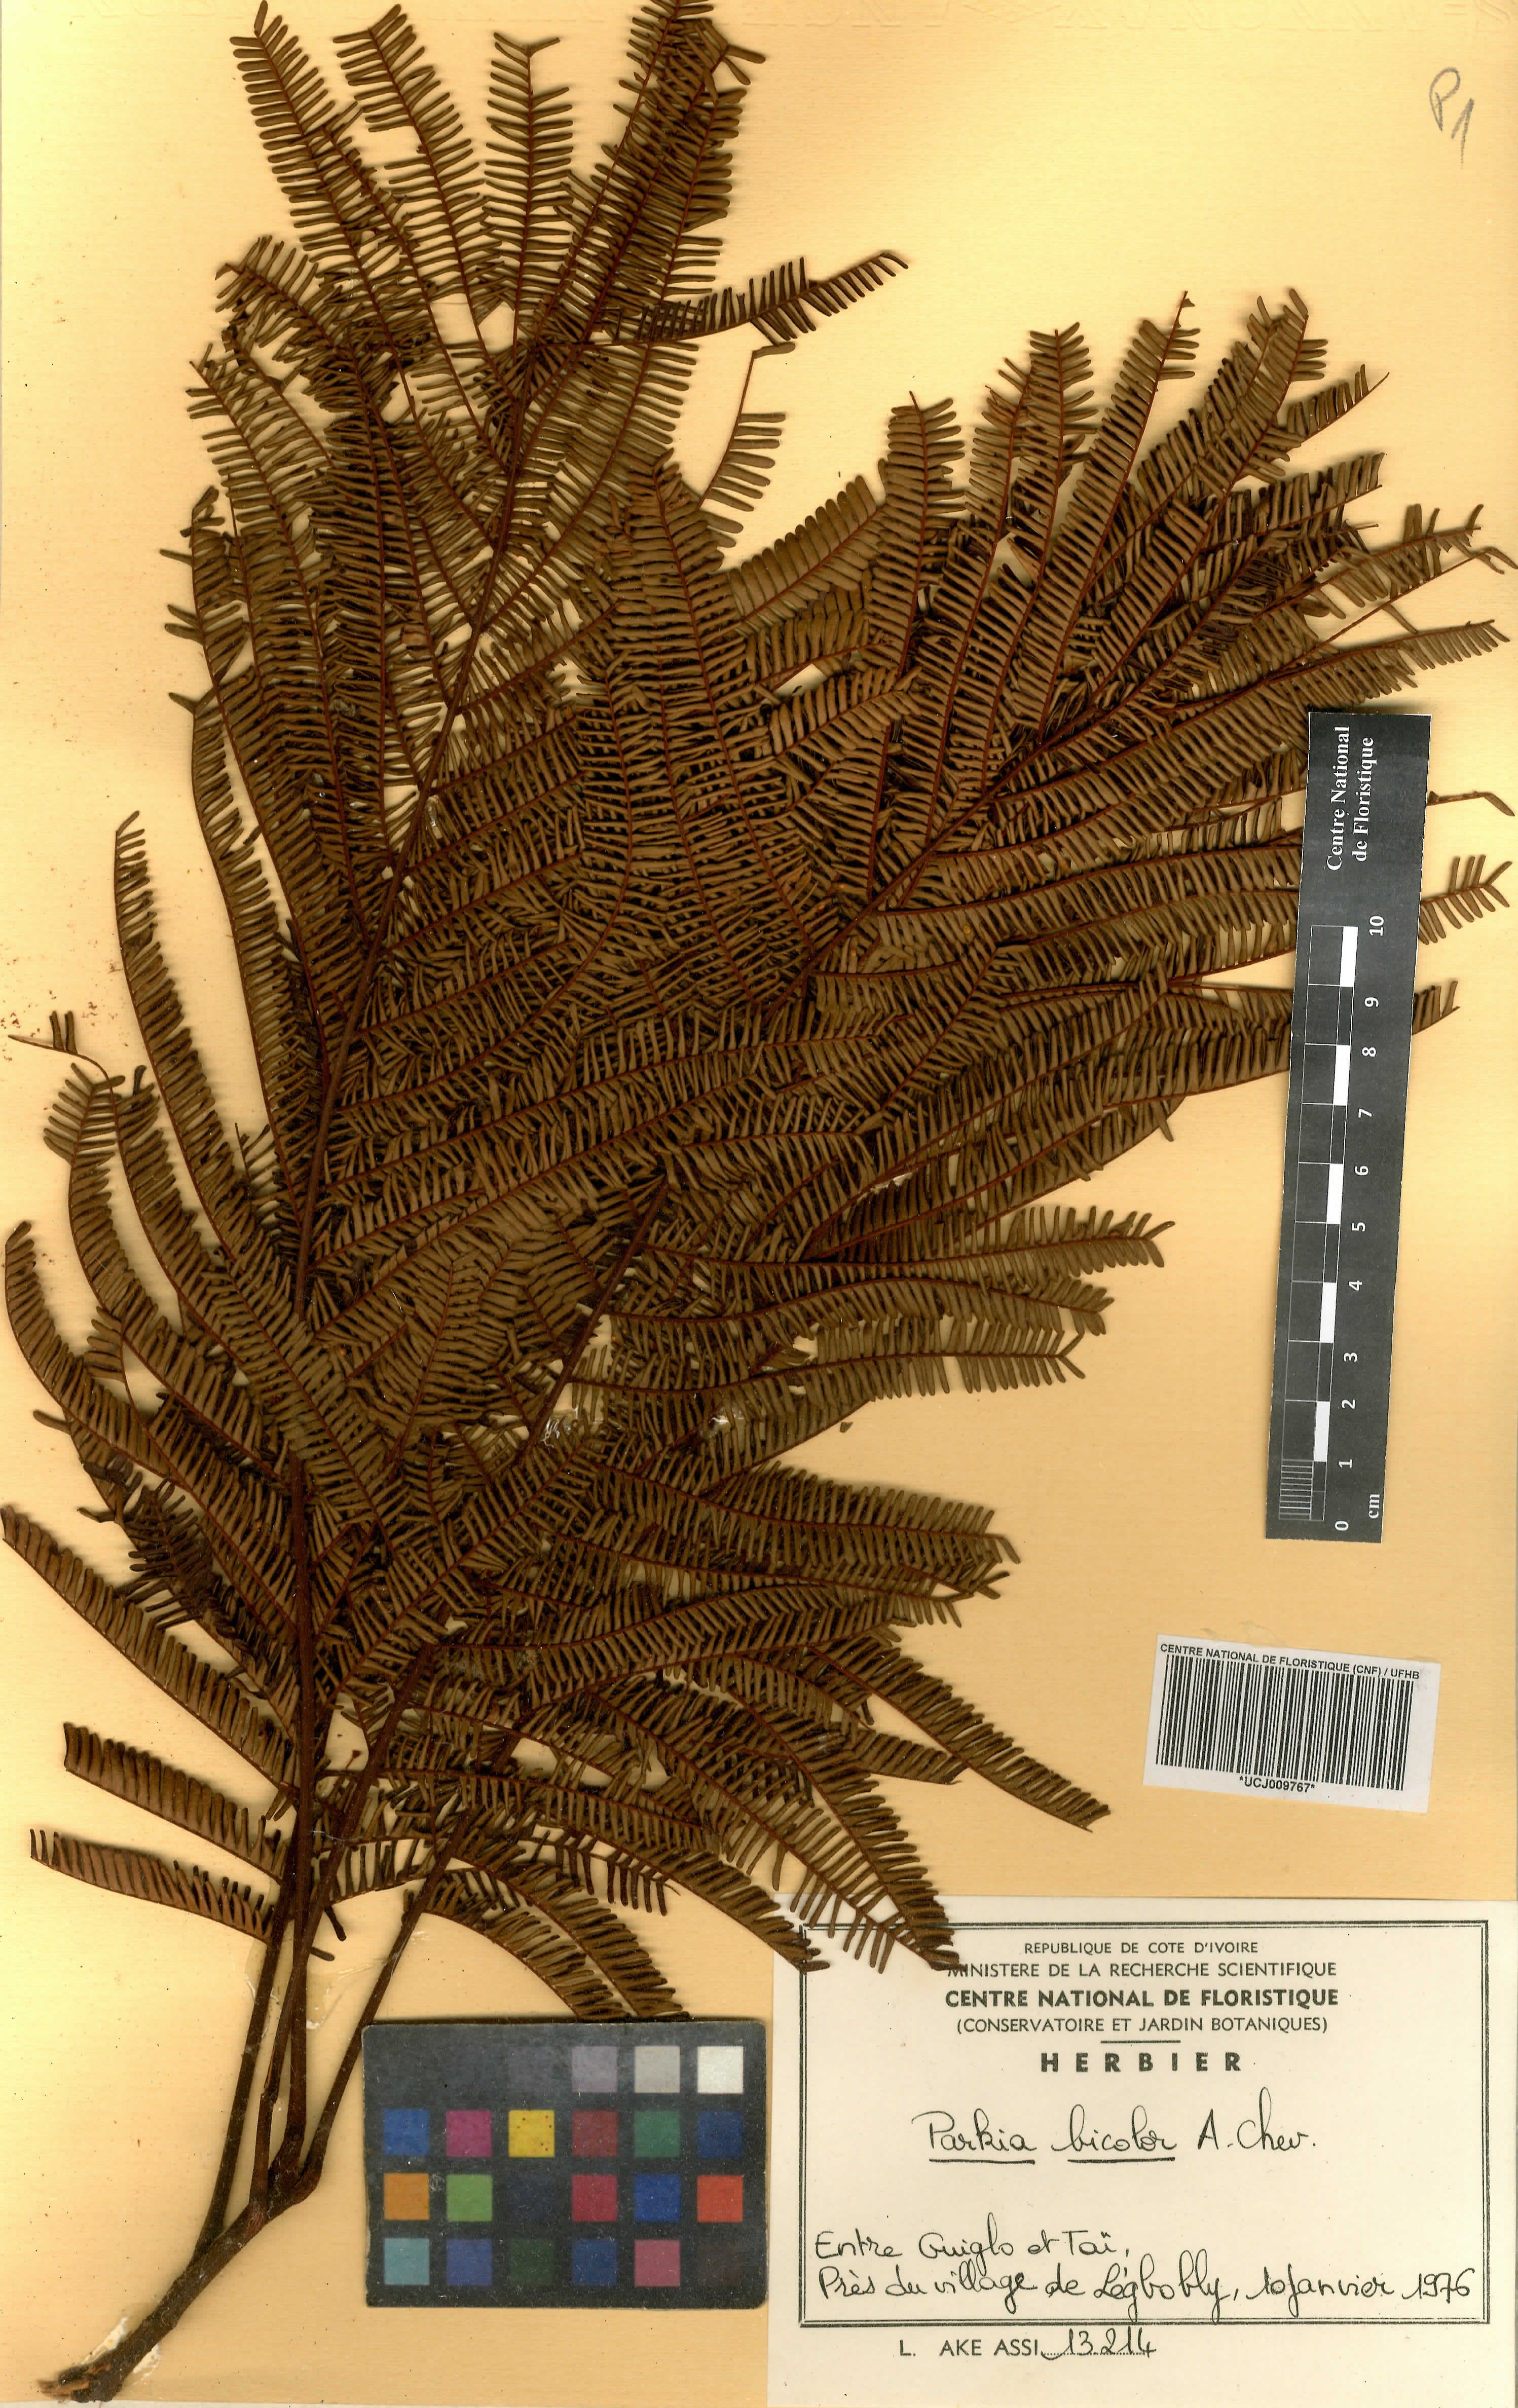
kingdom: Plantae
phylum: Tracheophyta
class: Magnoliopsida
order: Fabales
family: Fabaceae
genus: Parkia
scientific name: Parkia bicolor
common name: African locust-bean
